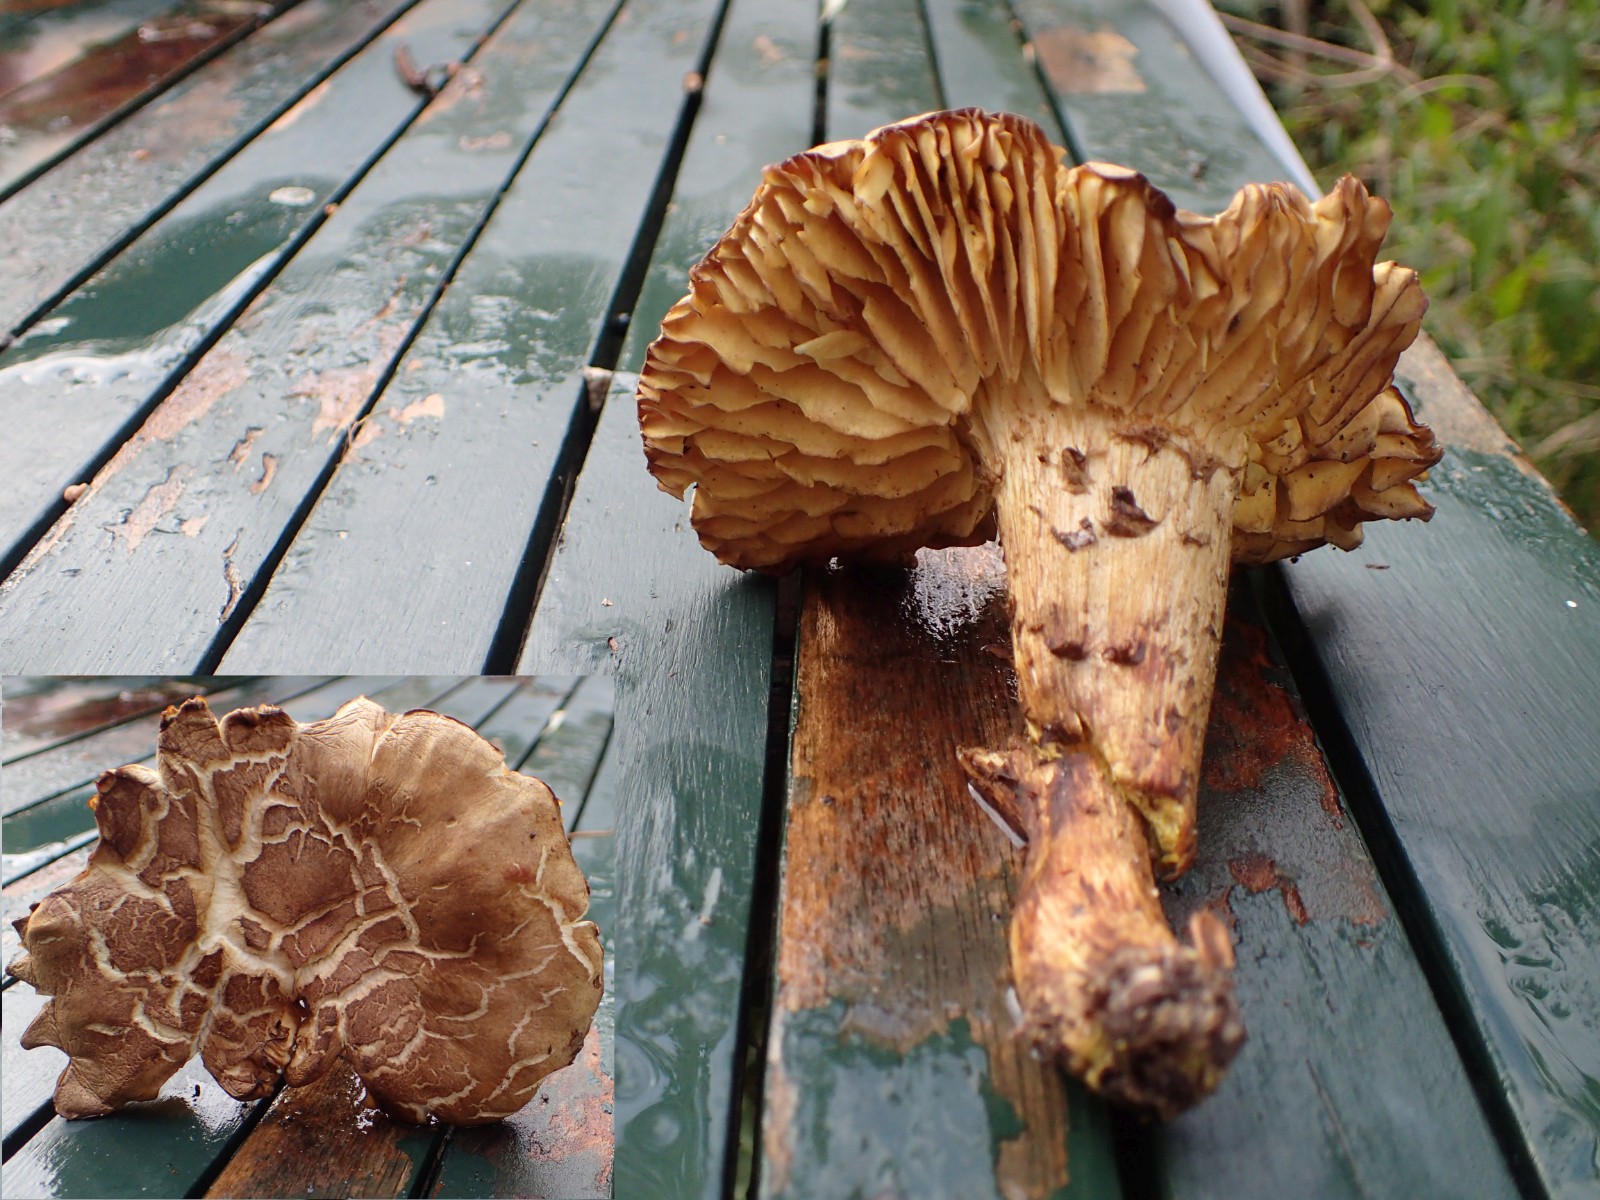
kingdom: Fungi
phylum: Basidiomycota
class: Agaricomycetes
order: Agaricales
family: Tricholomataceae
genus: Tricholoma
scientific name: Tricholoma
